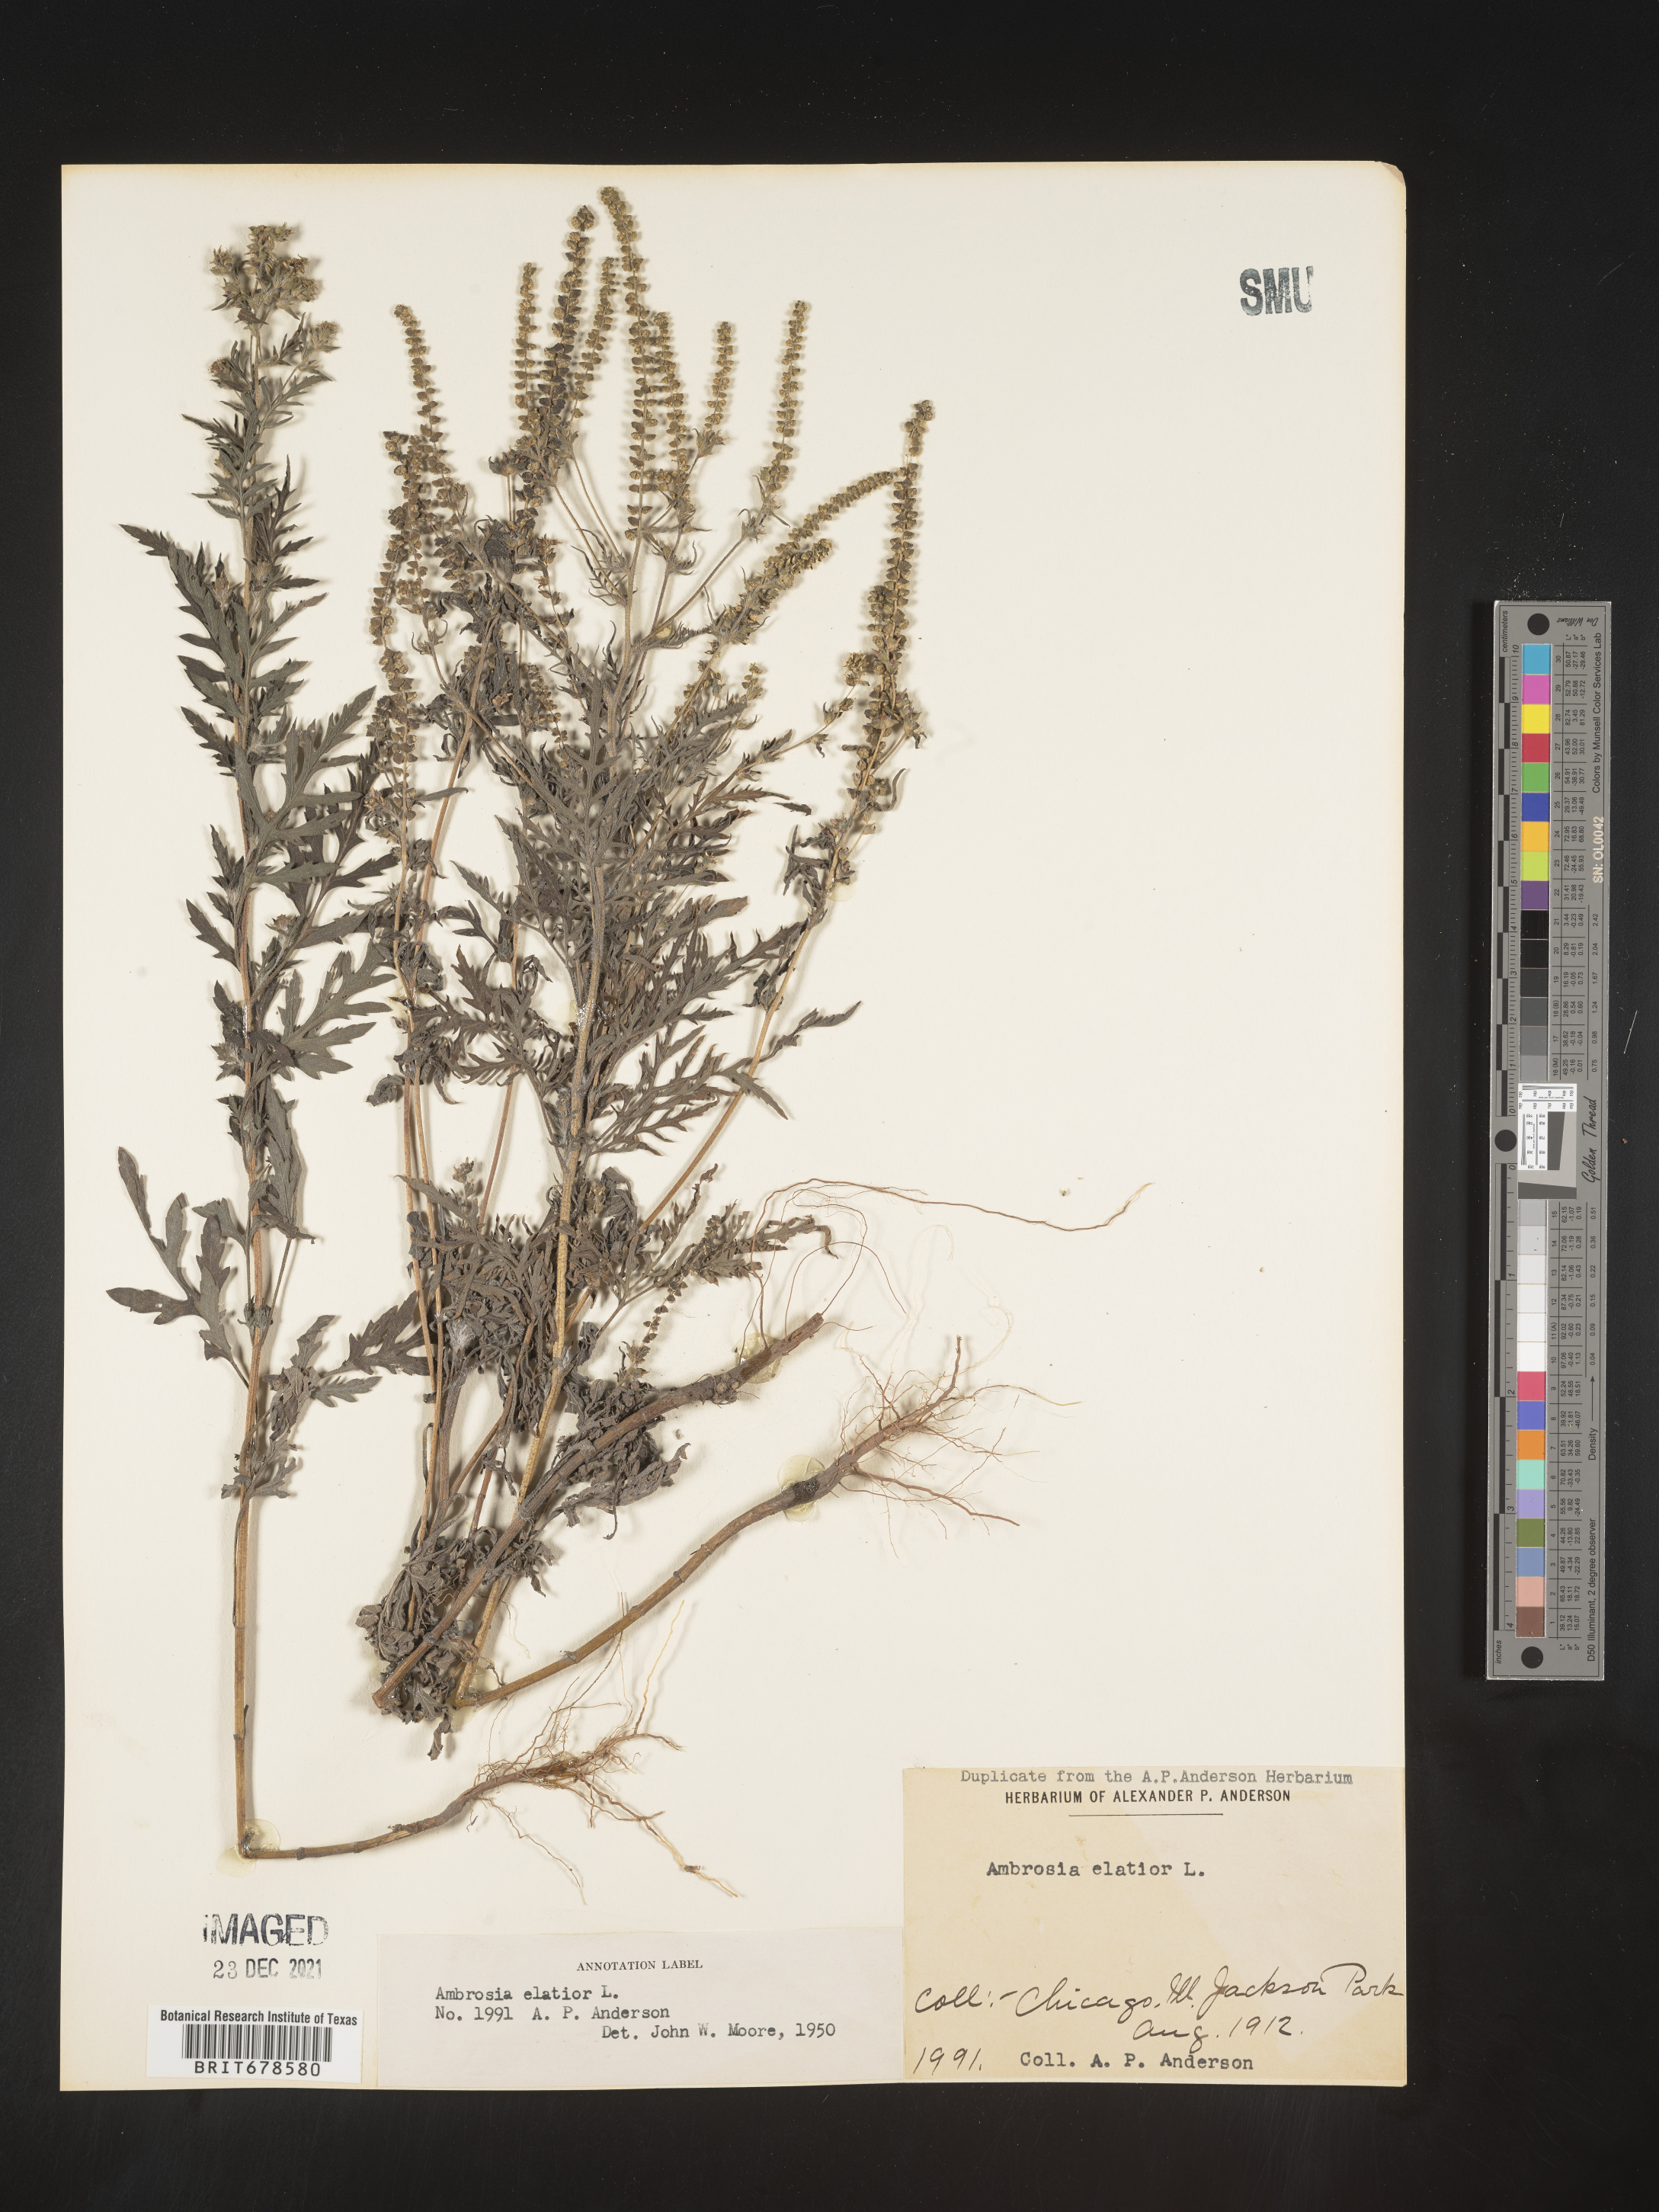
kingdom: Plantae
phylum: Tracheophyta
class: Magnoliopsida
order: Asterales
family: Asteraceae
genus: Ambrosia
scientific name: Ambrosia polystachya
